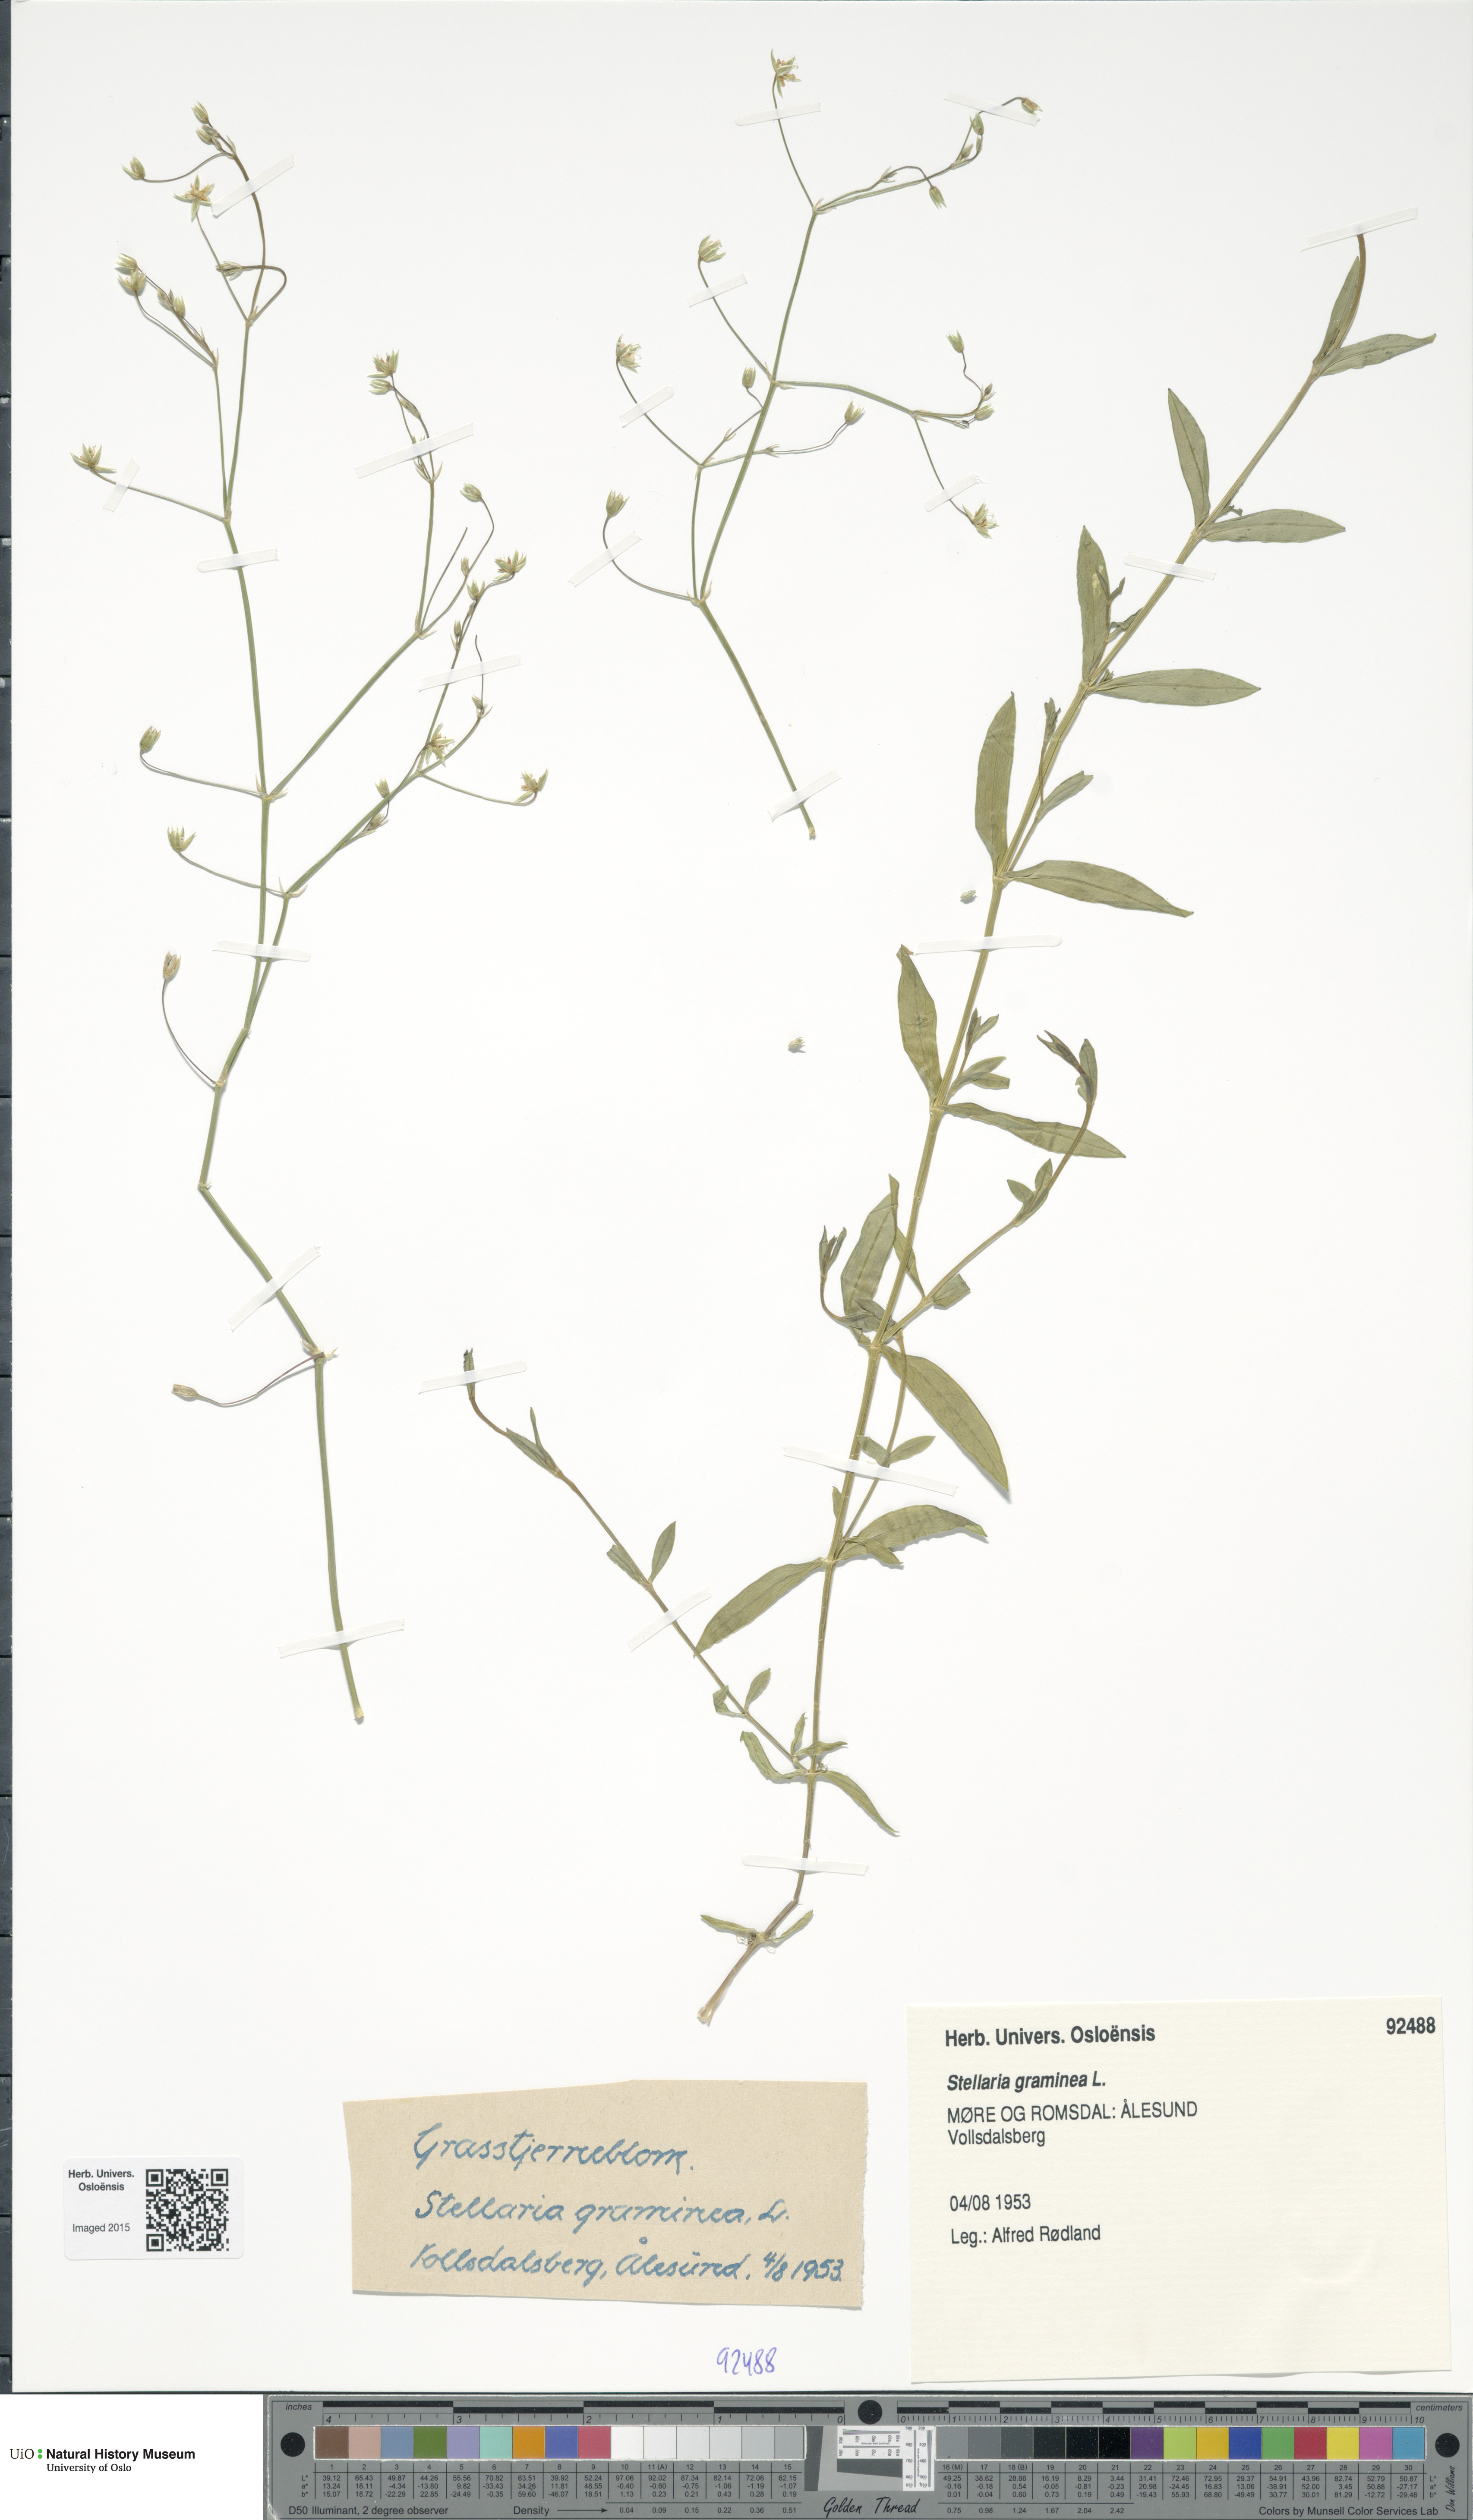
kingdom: Plantae
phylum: Tracheophyta
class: Magnoliopsida
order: Caryophyllales
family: Caryophyllaceae
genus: Stellaria
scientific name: Stellaria graminea
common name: Grass-like starwort
